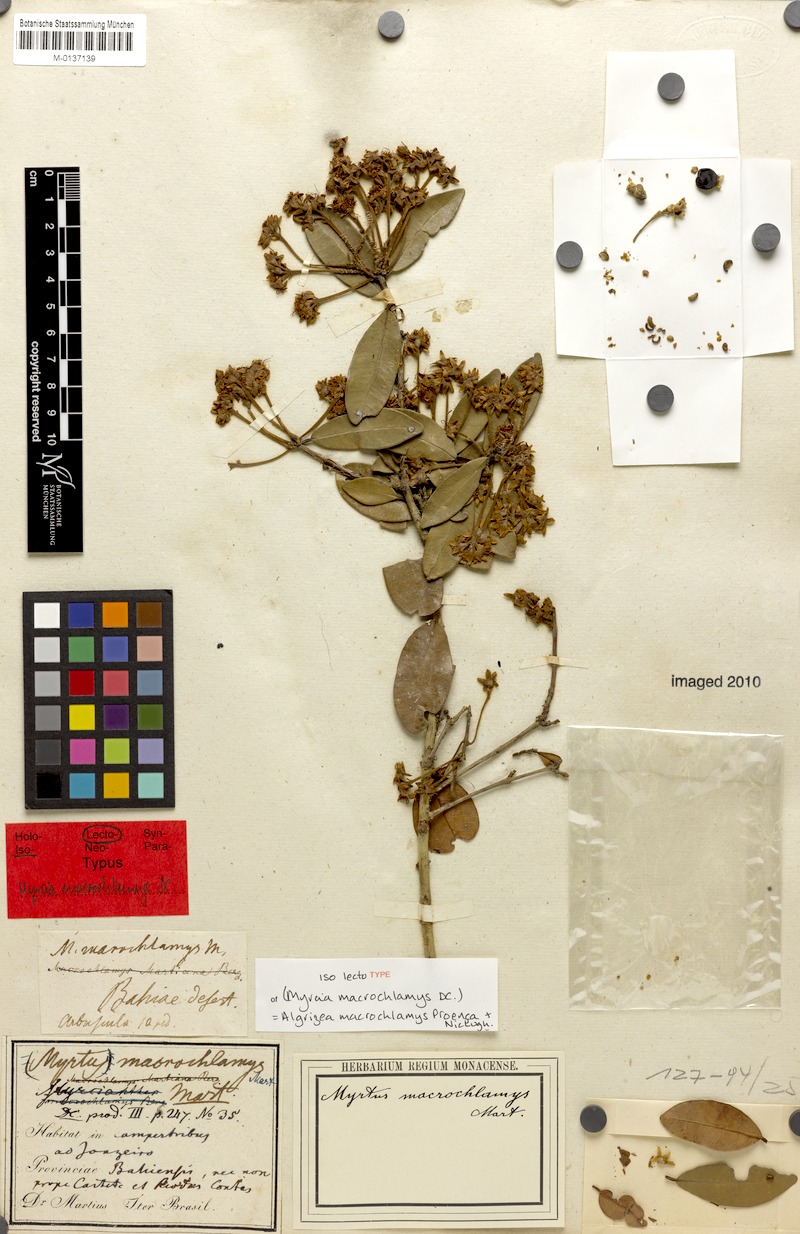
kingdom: Plantae
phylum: Tracheophyta
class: Magnoliopsida
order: Myrtales
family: Myrtaceae
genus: Algrizea
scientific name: Algrizea macrochlamys
